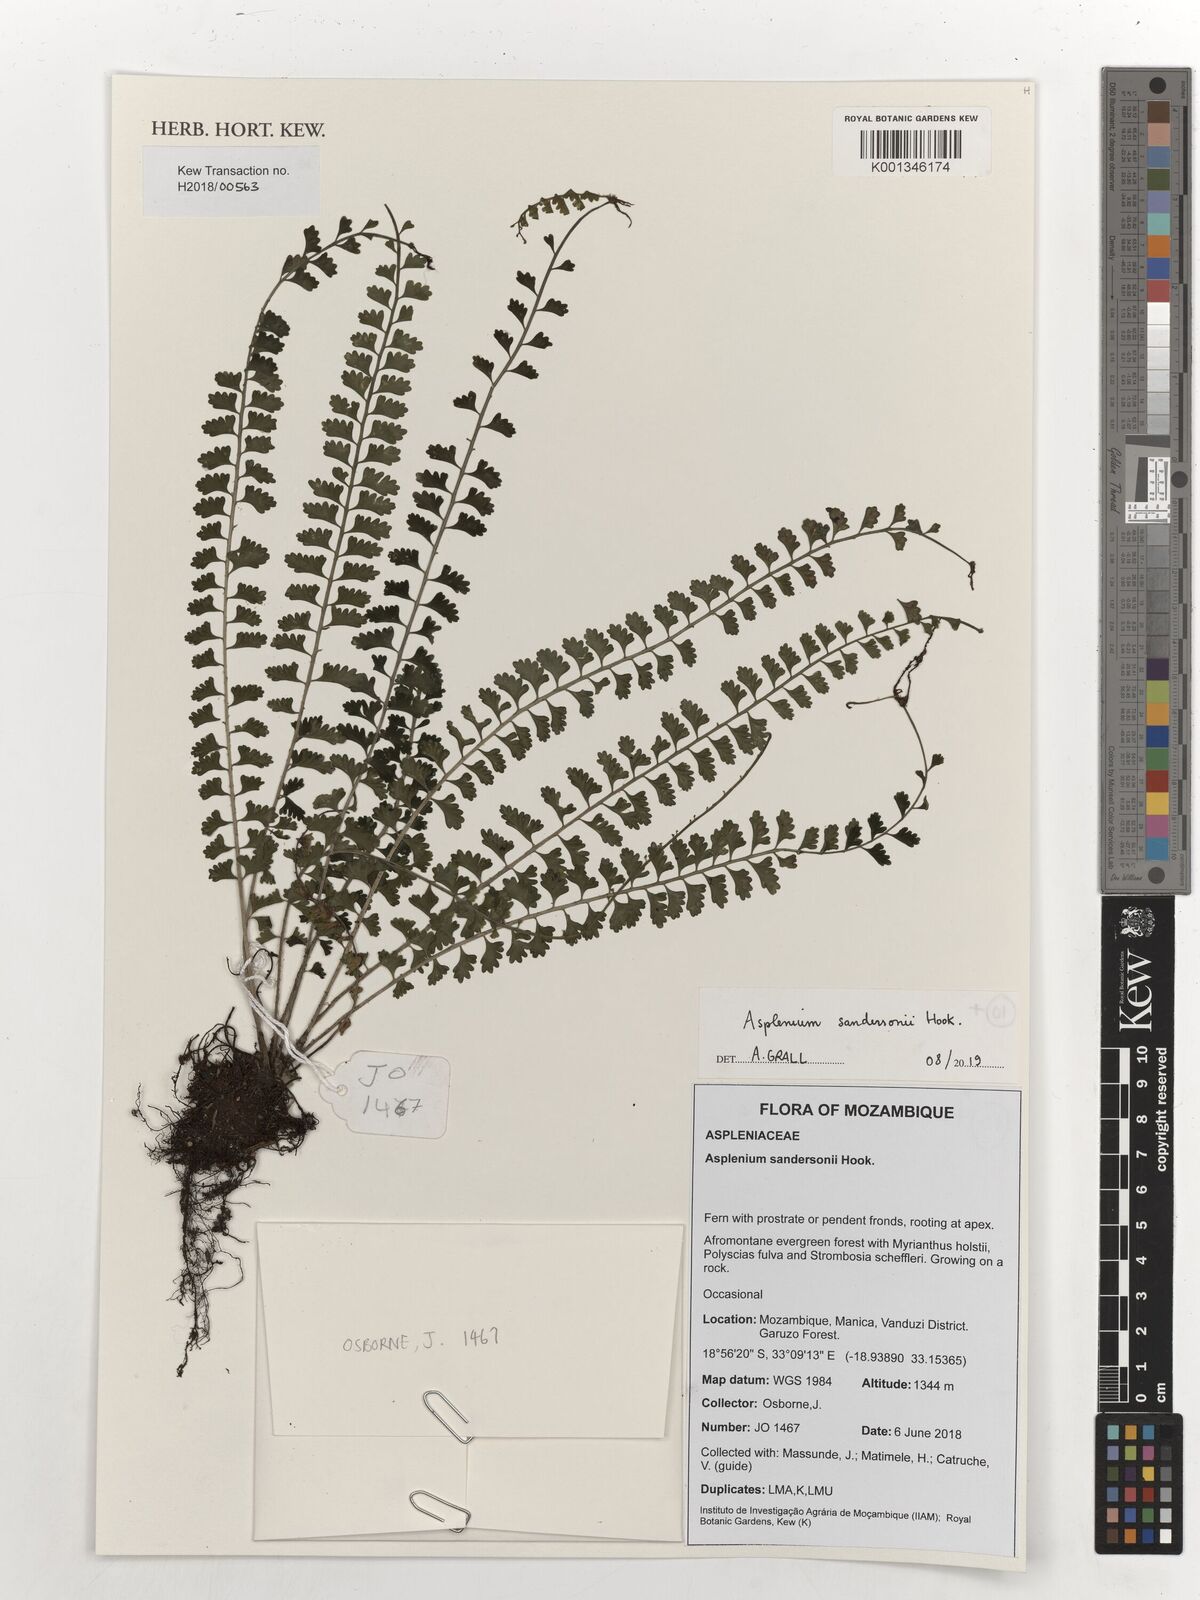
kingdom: Plantae
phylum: Tracheophyta
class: Polypodiopsida
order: Polypodiales
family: Aspleniaceae
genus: Asplenium
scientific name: Asplenium sandersonii
